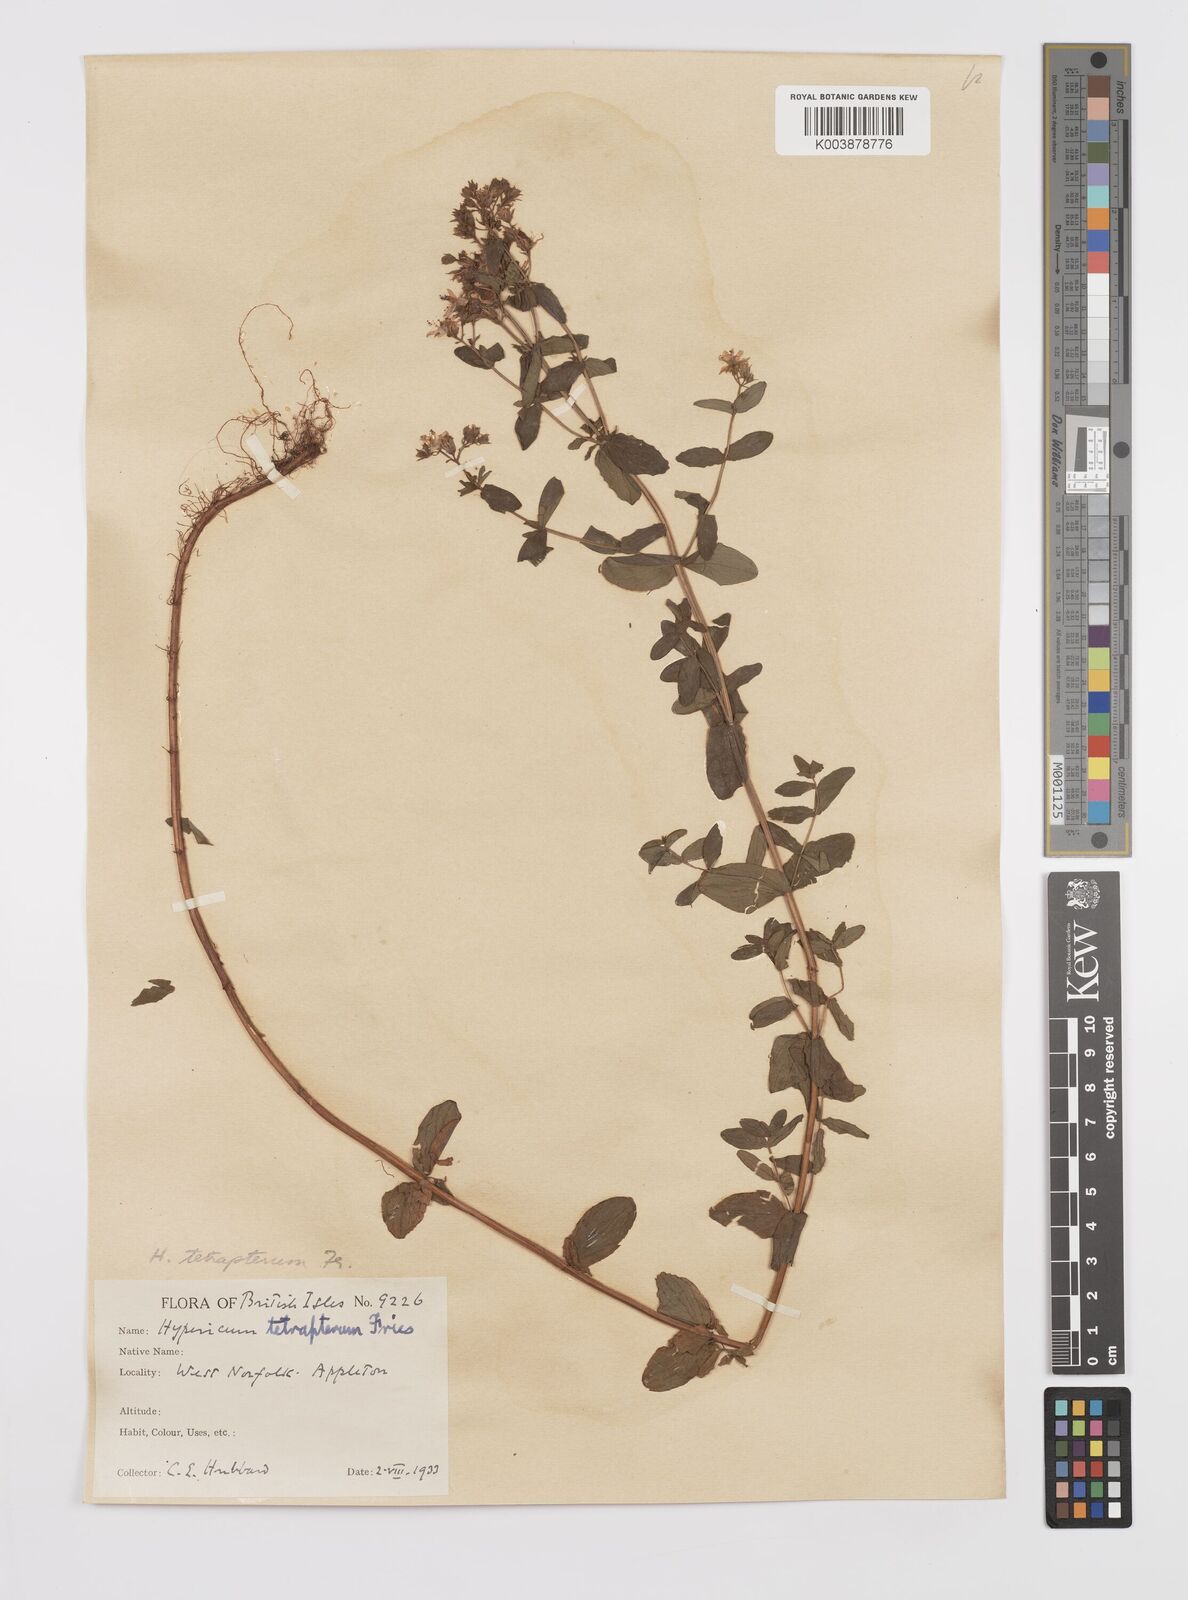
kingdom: Plantae
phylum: Tracheophyta
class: Magnoliopsida
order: Malpighiales
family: Hypericaceae
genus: Hypericum
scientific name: Hypericum tetrapterum
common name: Square-stalked st. john's-wort
